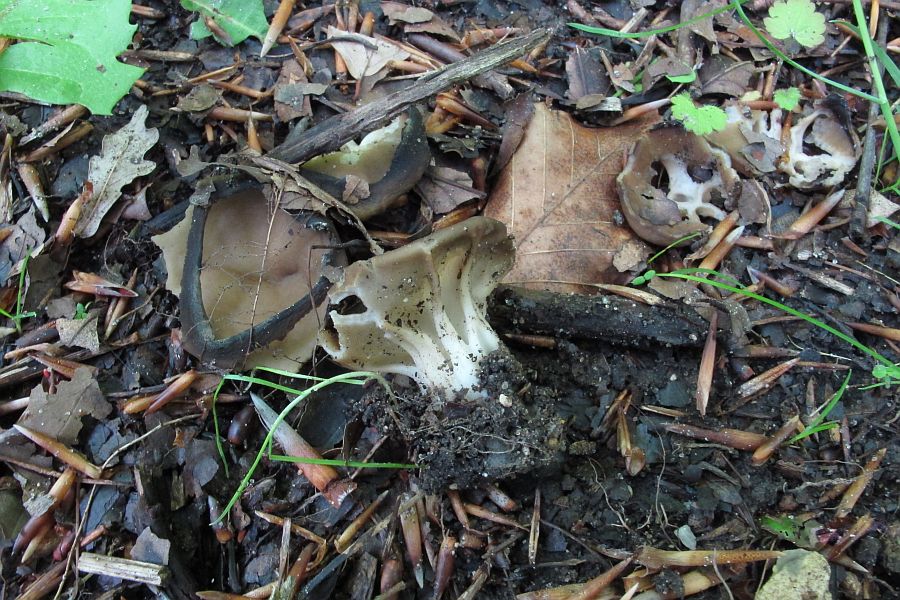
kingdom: Fungi
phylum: Ascomycota
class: Pezizomycetes
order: Pezizales
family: Helvellaceae
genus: Helvella
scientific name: Helvella acetabulum
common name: pokal-foldhat
